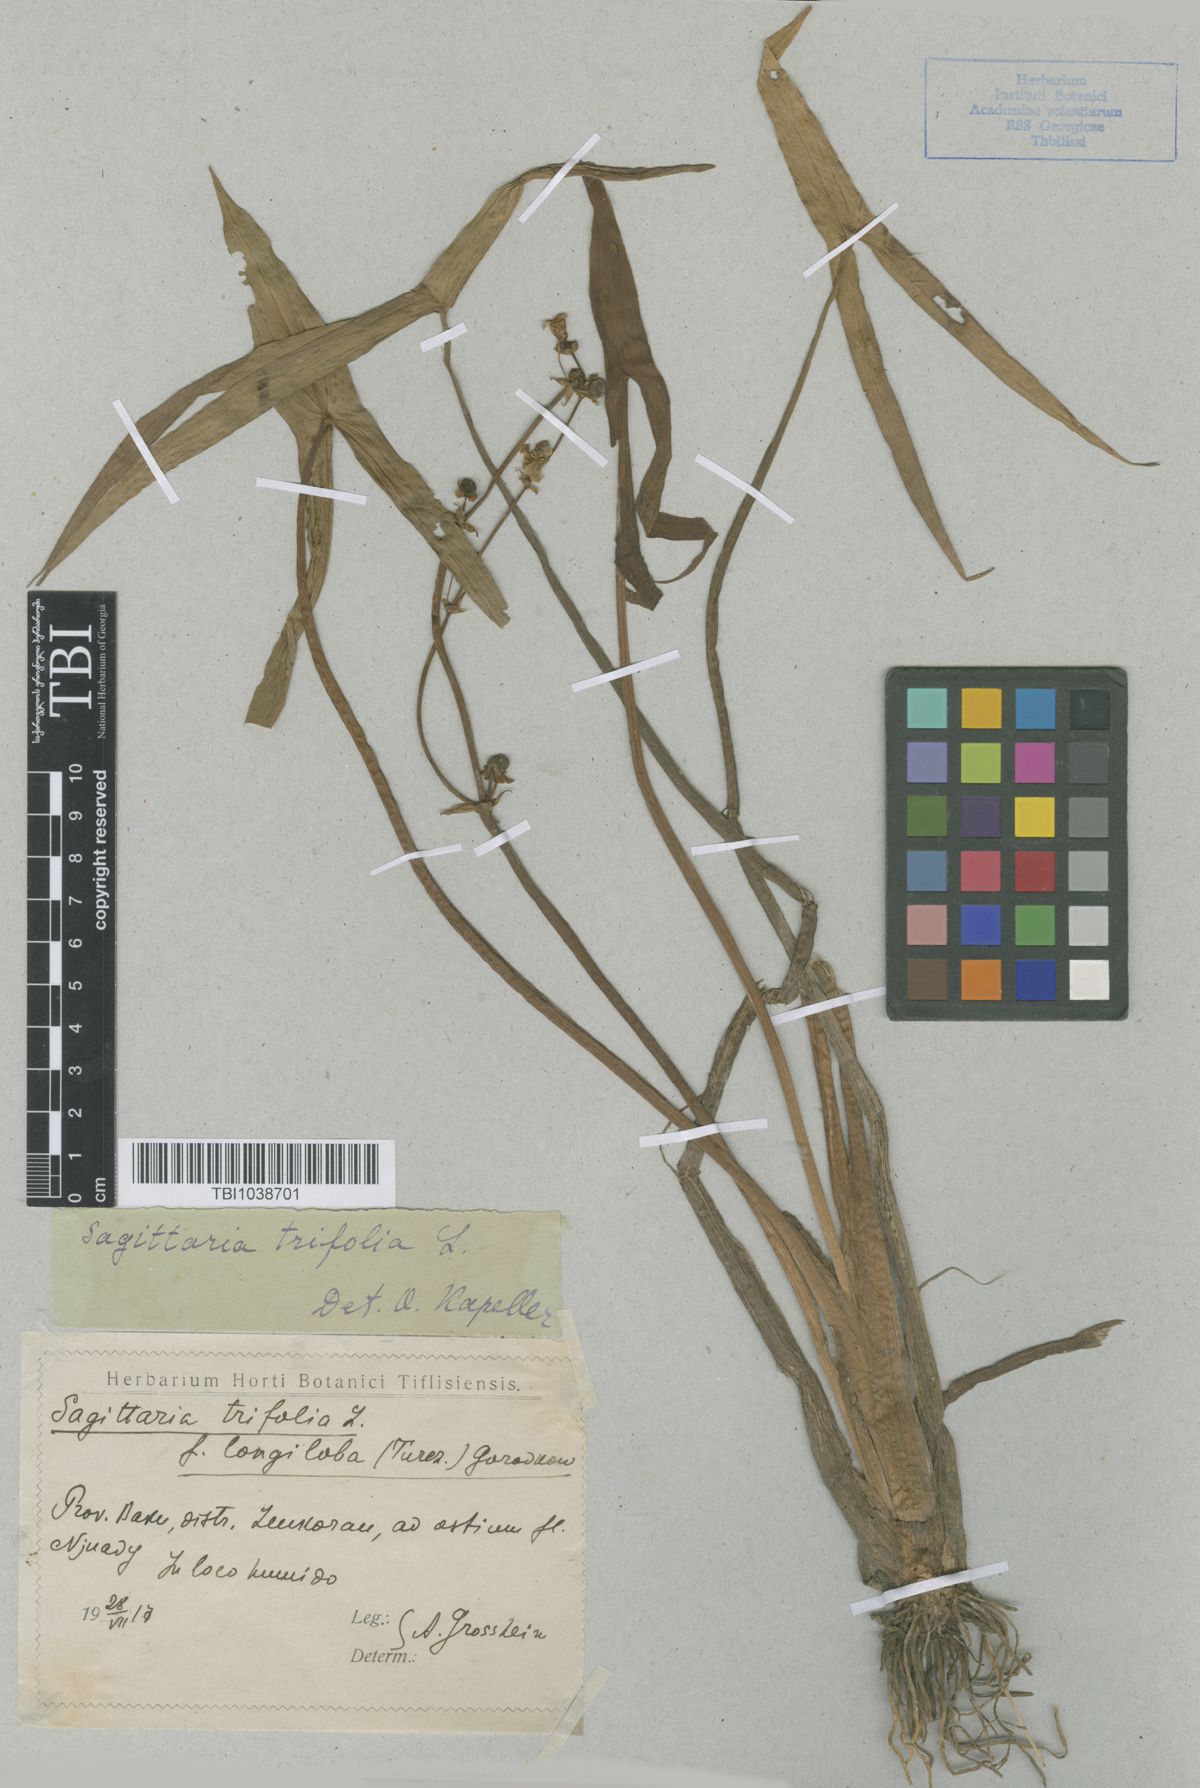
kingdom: Plantae
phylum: Tracheophyta
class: Liliopsida
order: Alismatales
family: Alismataceae
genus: Sagittaria
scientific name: Sagittaria trifolia
